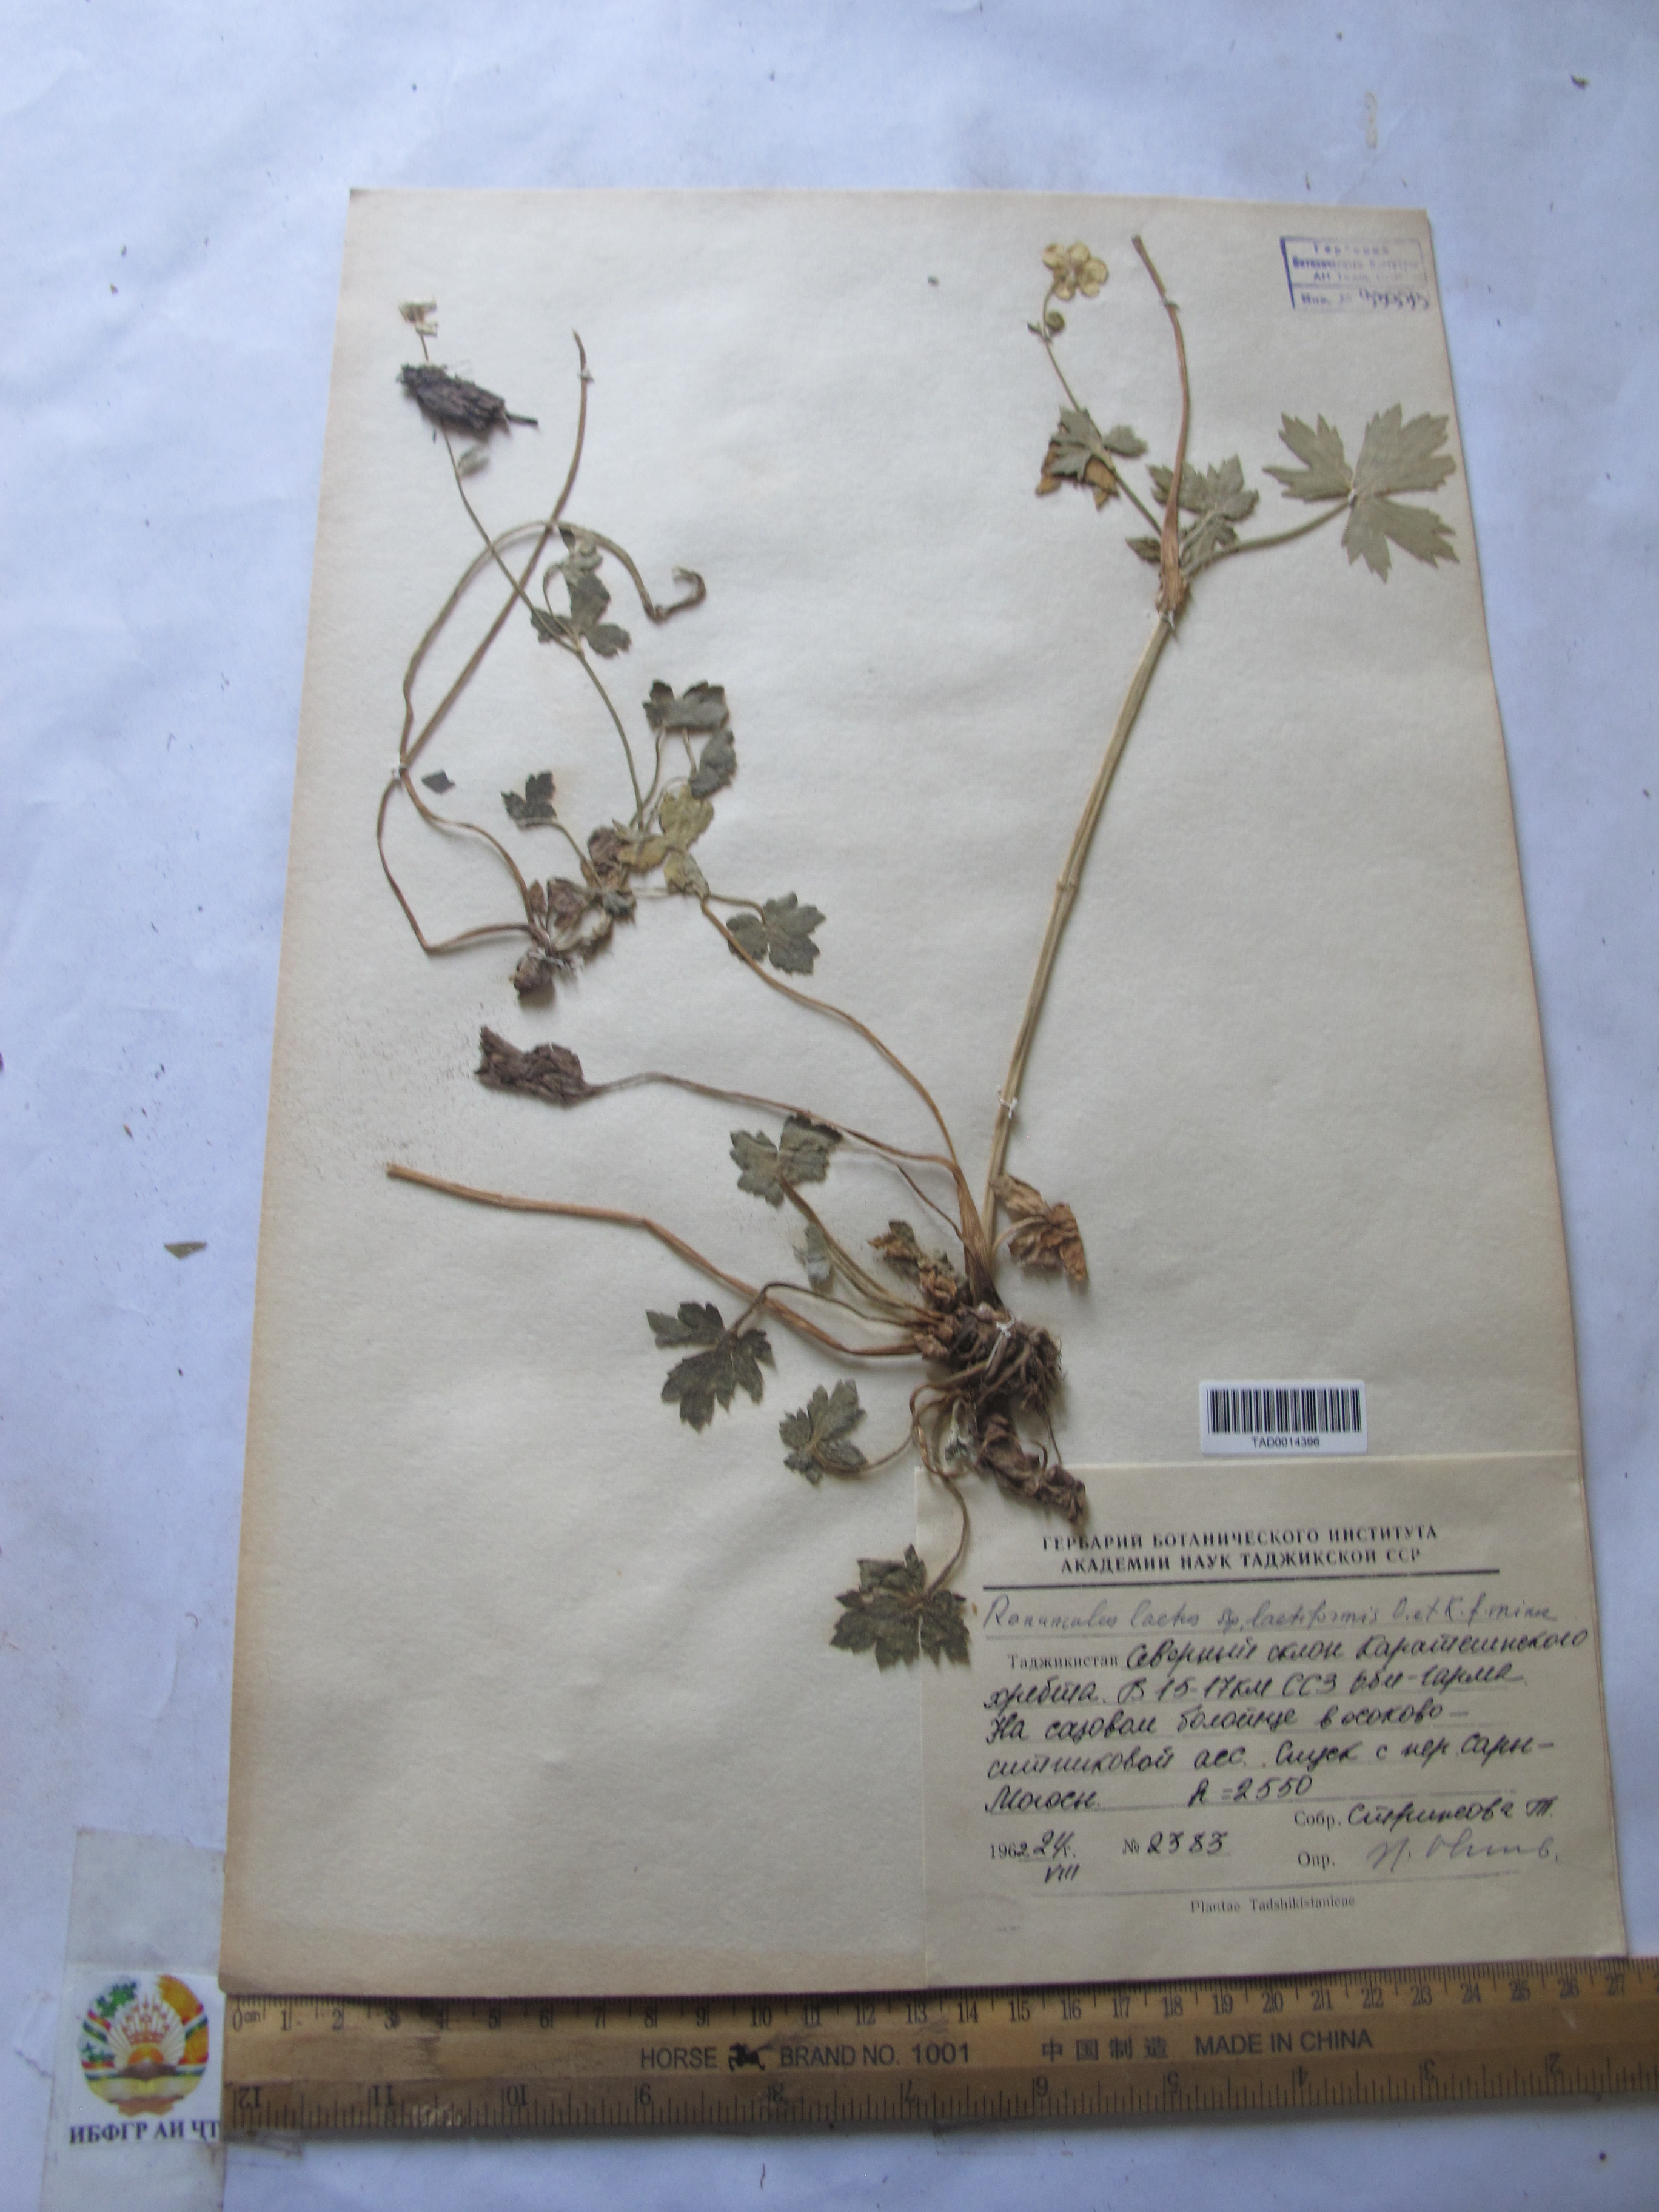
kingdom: Plantae
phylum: Tracheophyta
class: Magnoliopsida
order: Ranunculales
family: Ranunculaceae
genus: Ranunculus
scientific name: Ranunculus distans
